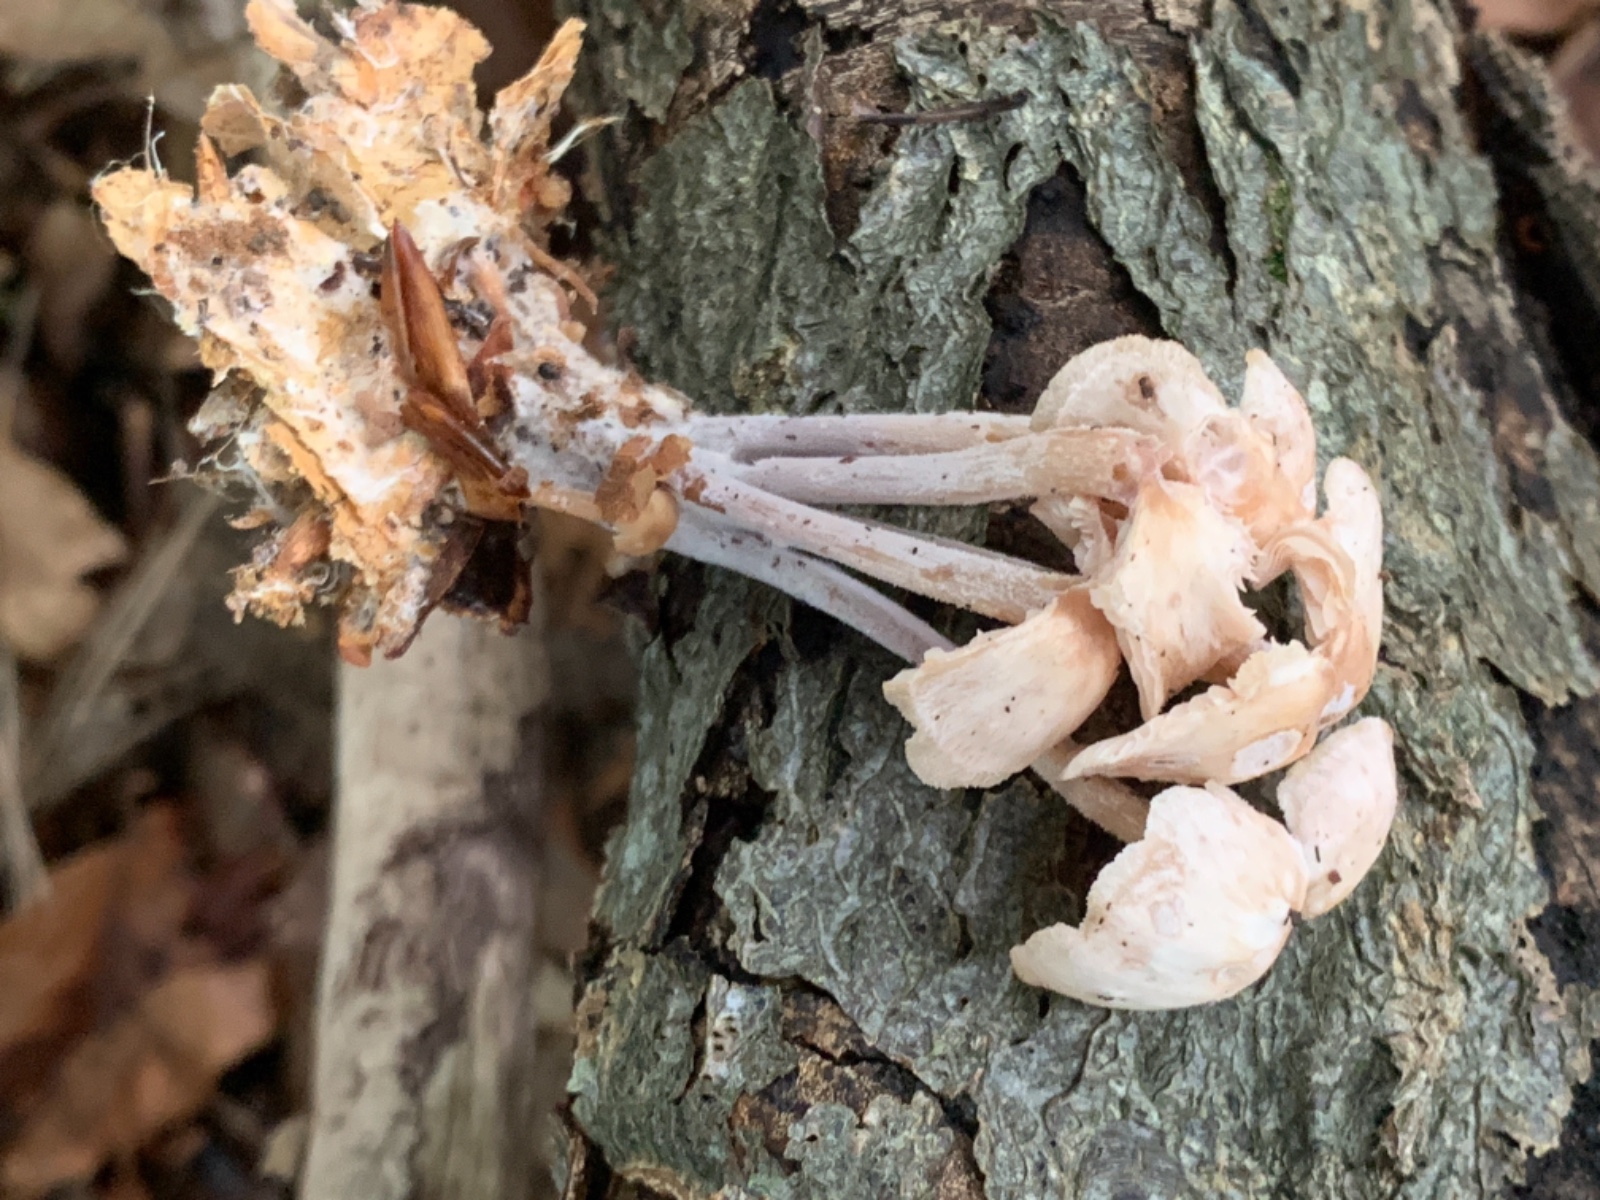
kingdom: Fungi
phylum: Basidiomycota
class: Agaricomycetes
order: Agaricales
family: Omphalotaceae
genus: Collybiopsis
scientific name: Collybiopsis confluens
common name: knippe-fladhat
